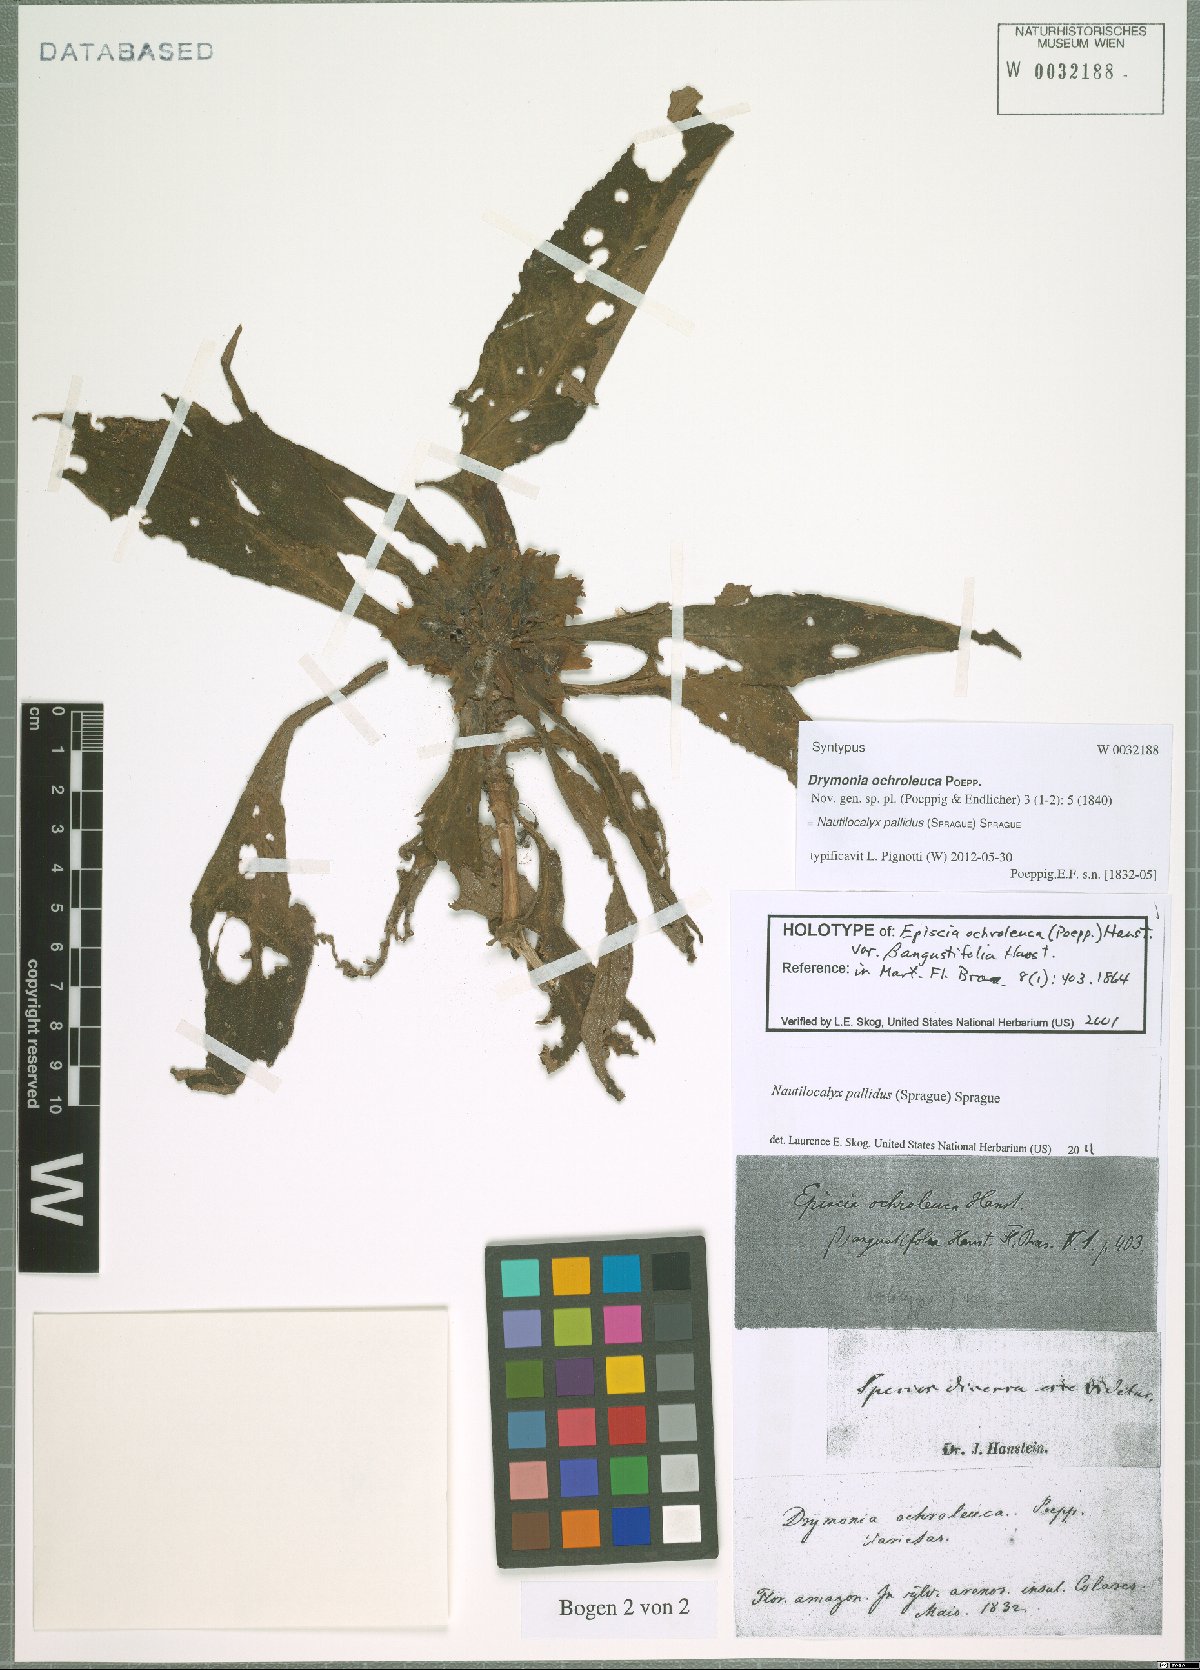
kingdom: Plantae
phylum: Tracheophyta
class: Magnoliopsida
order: Lamiales
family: Gesneriaceae
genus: Nautilocalyx
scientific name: Nautilocalyx pallidus
